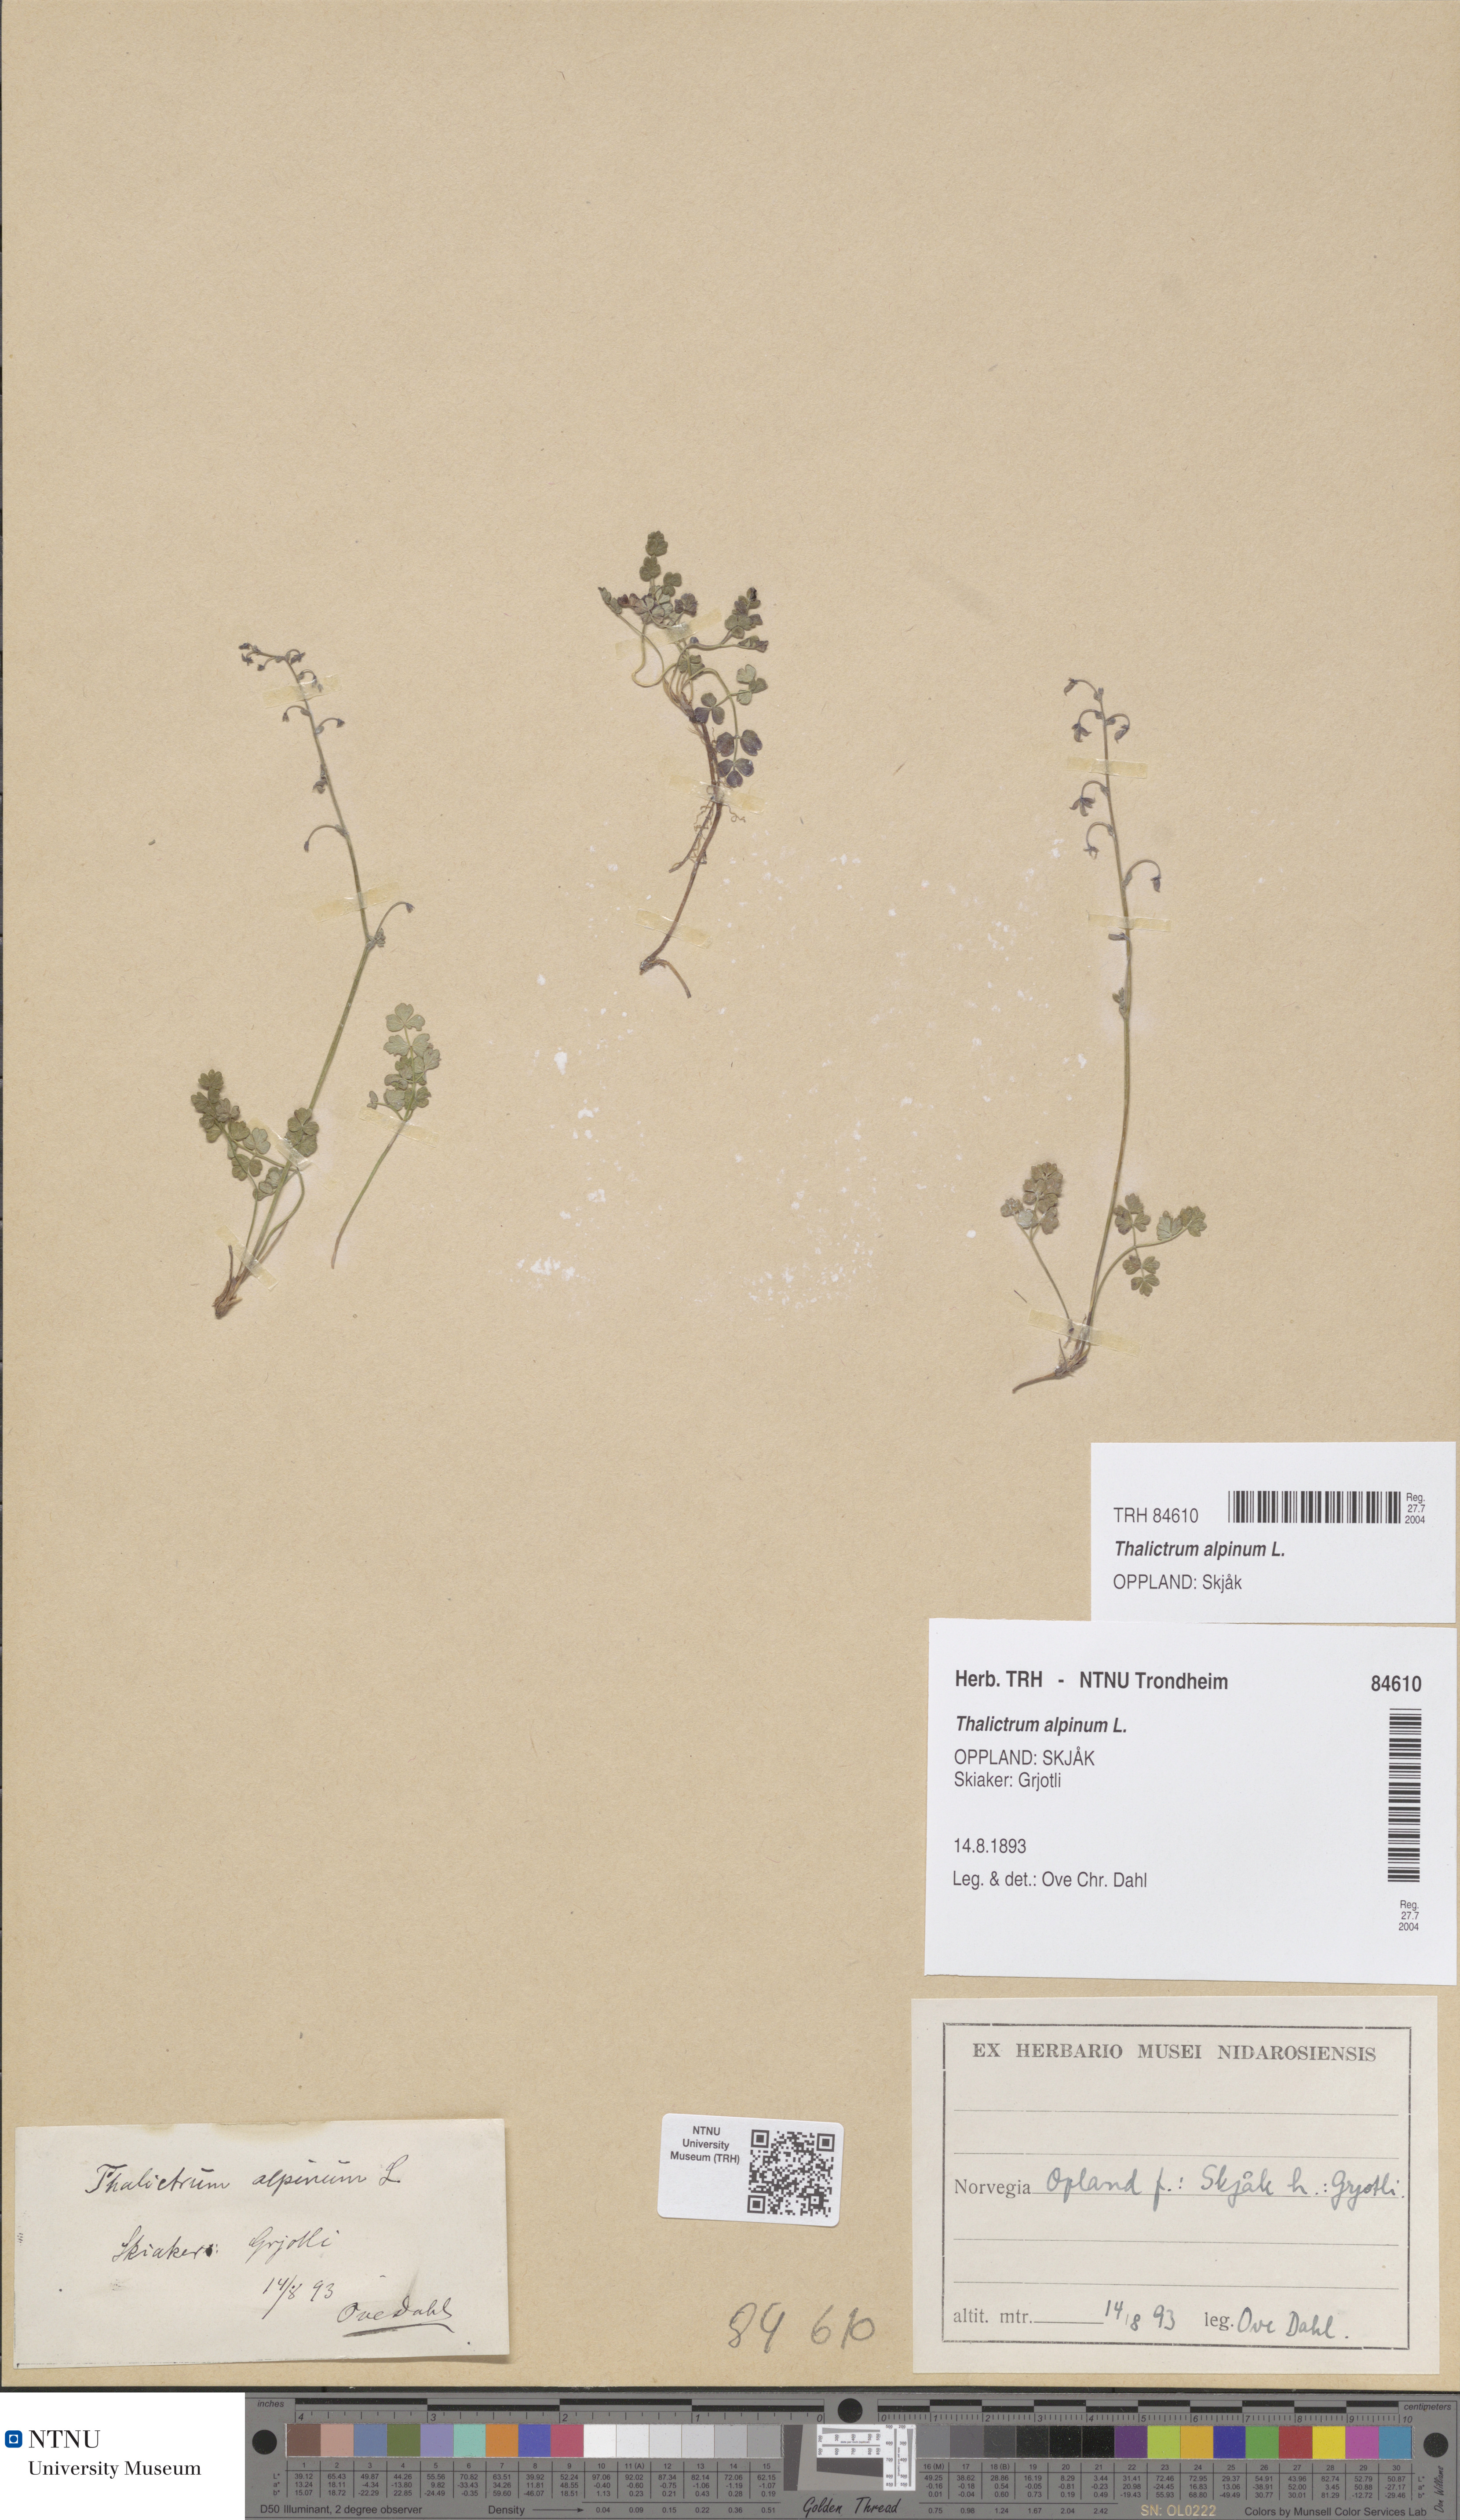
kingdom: Plantae
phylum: Tracheophyta
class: Magnoliopsida
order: Ranunculales
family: Ranunculaceae
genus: Thalictrum
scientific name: Thalictrum alpinum
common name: Alpine meadow-rue
